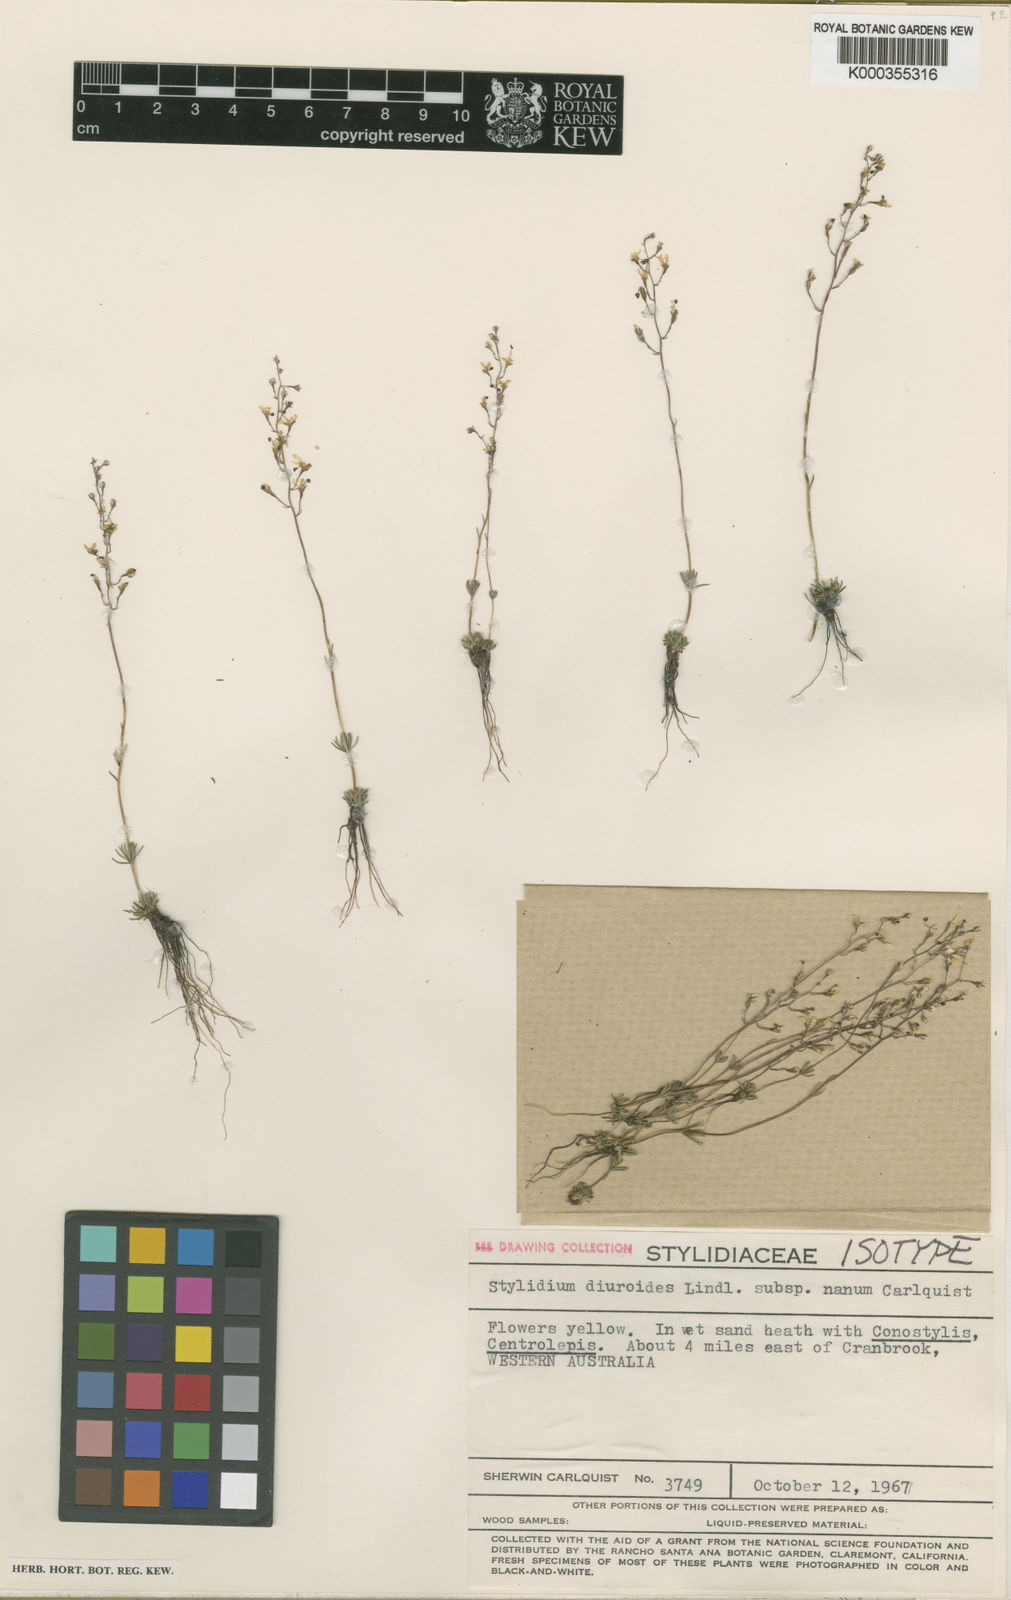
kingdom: Plantae
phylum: Tracheophyta
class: Magnoliopsida
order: Asterales
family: Stylidiaceae
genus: Stylidium
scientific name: Stylidium diuroides
